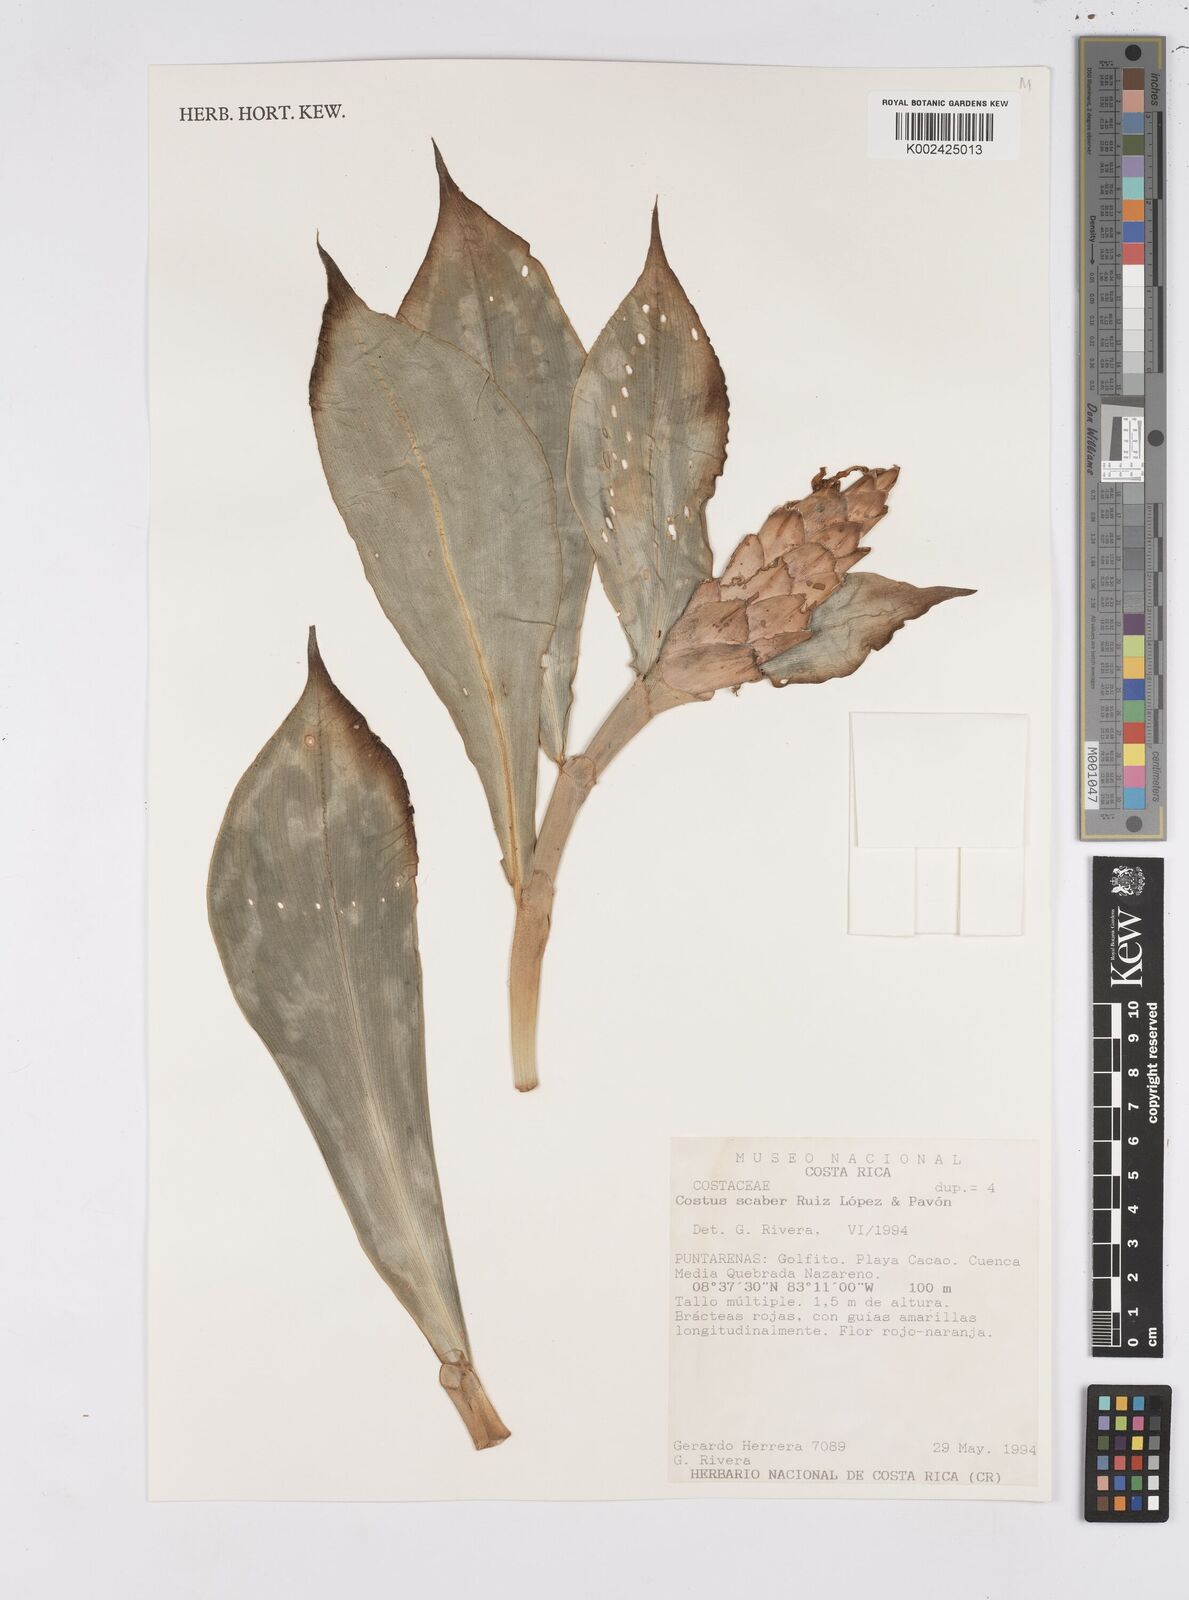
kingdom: Plantae
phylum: Tracheophyta
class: Liliopsida
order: Zingiberales
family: Costaceae
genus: Costus
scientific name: Costus scaber
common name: Spiral head ginger
